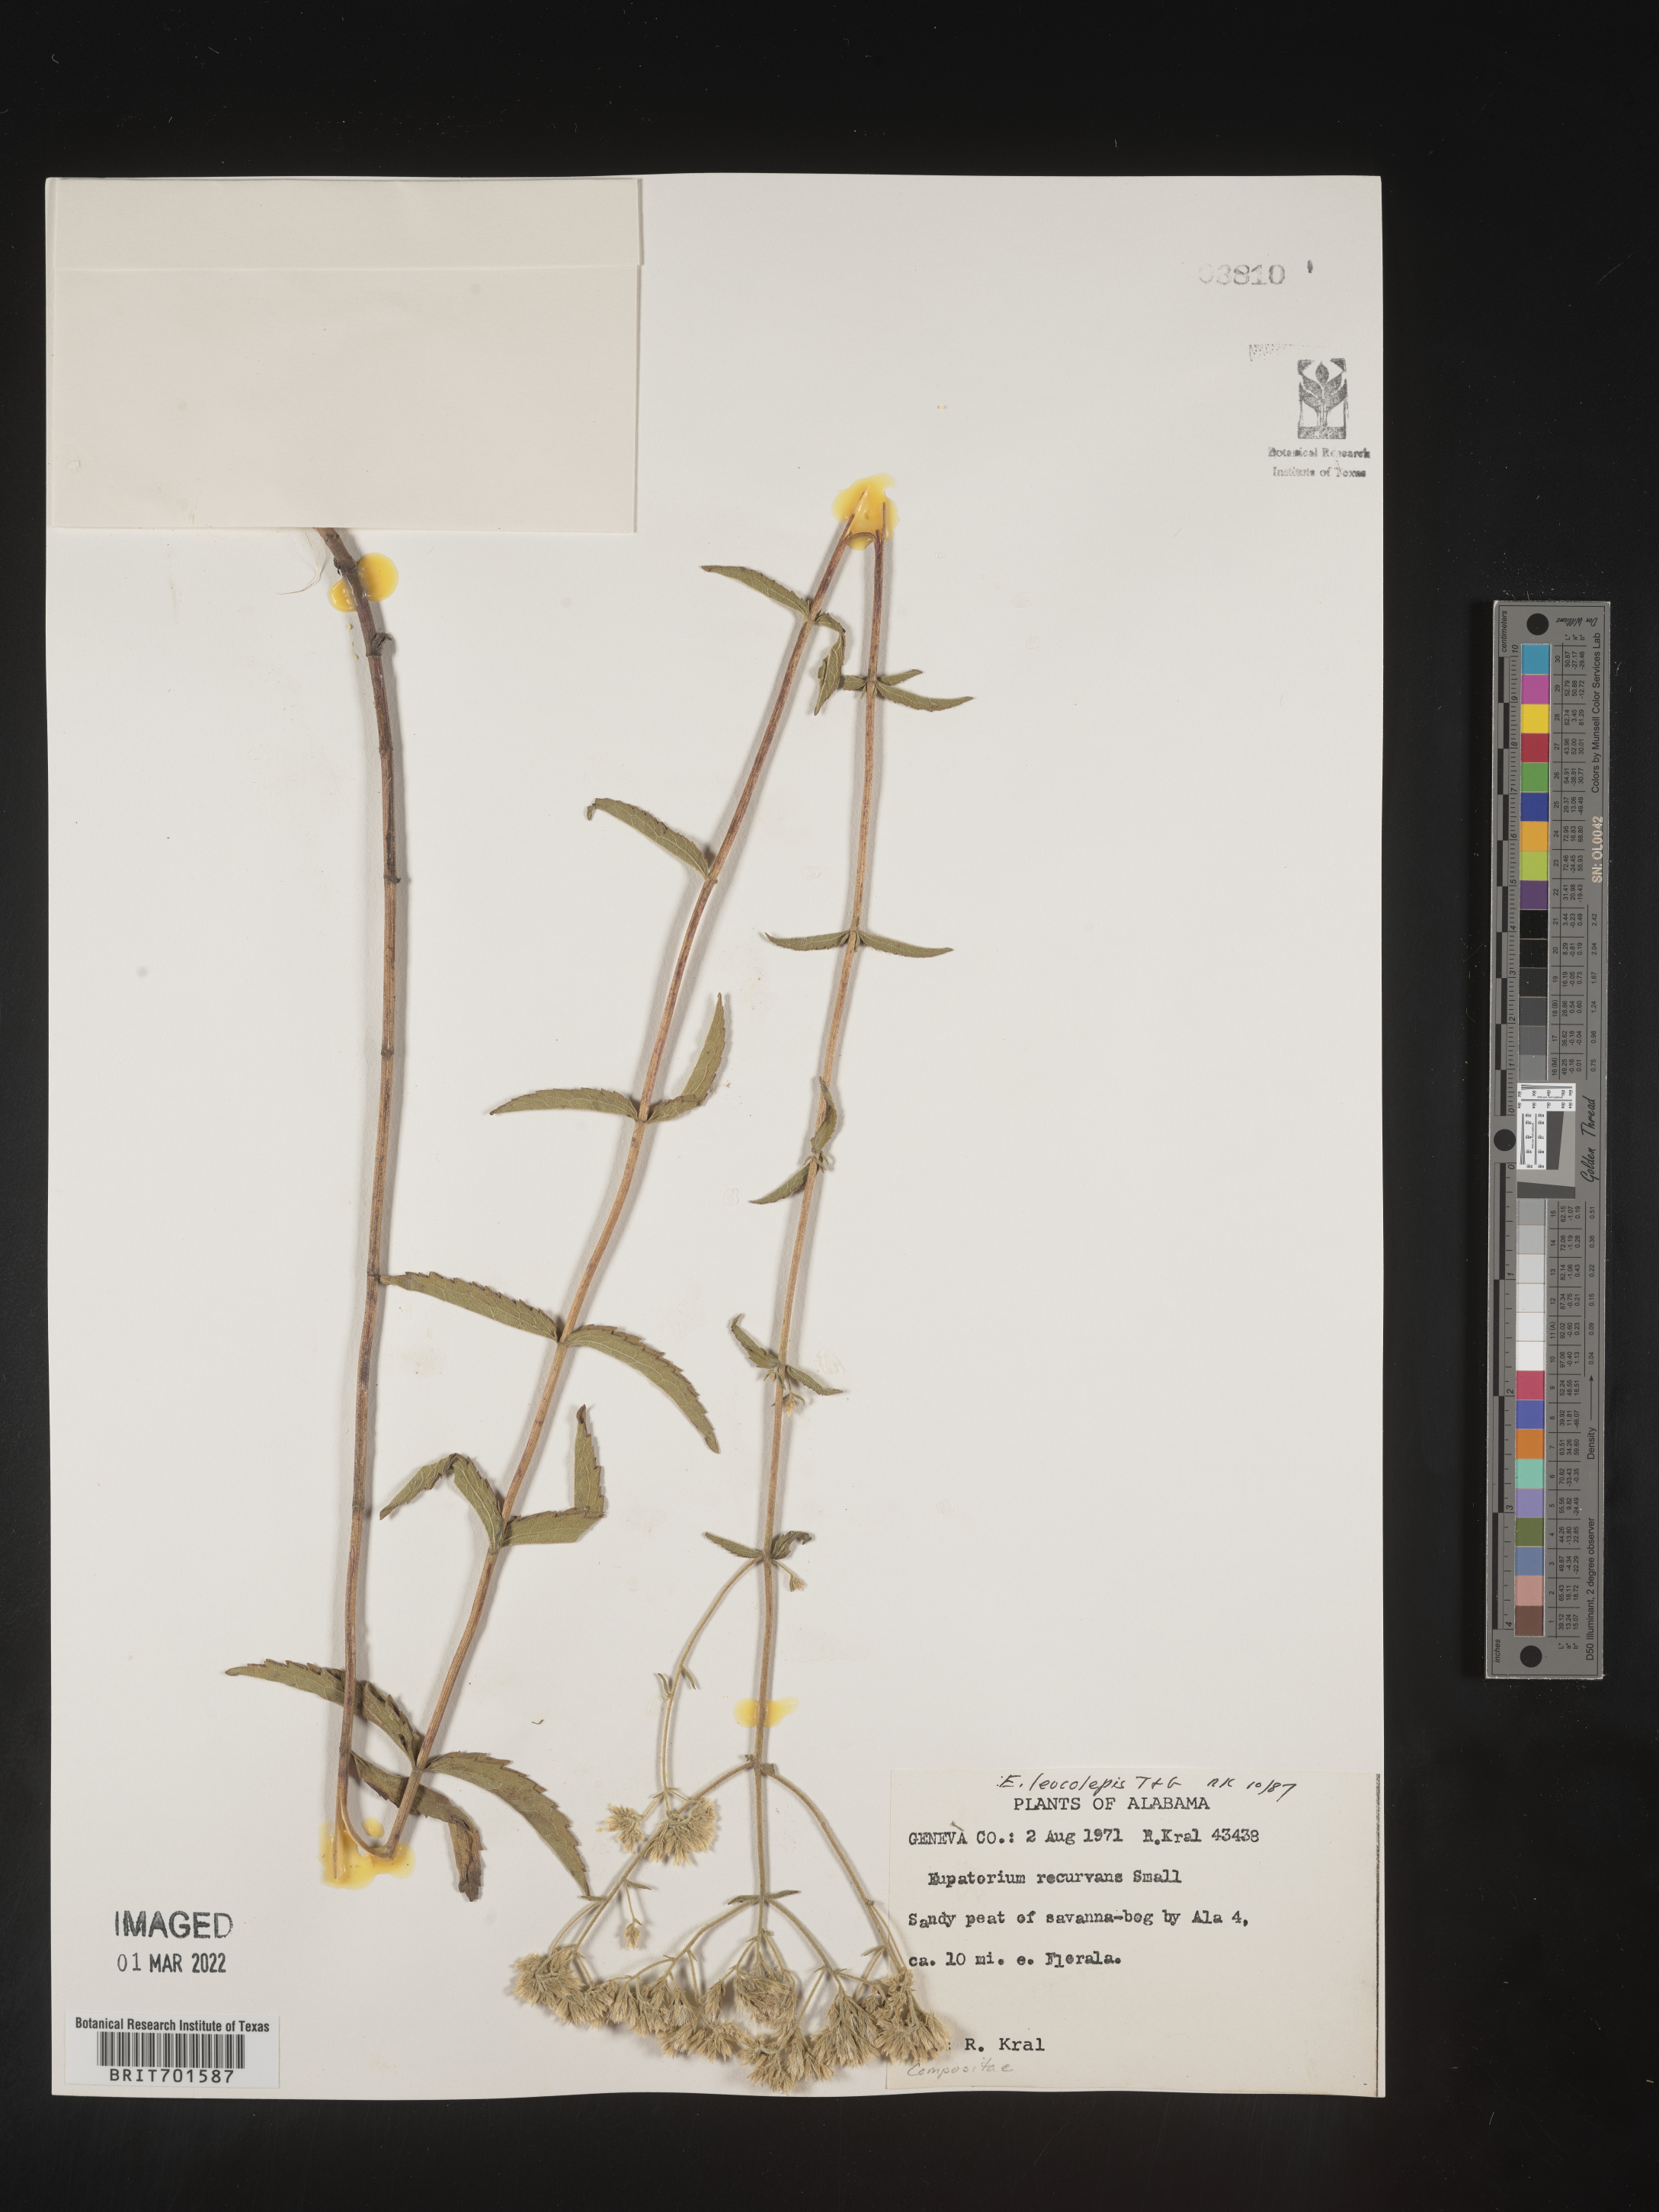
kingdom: Plantae
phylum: Tracheophyta
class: Magnoliopsida
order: Asterales
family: Asteraceae
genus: Eupatorium
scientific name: Eupatorium leucolepis
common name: Justiceweed
